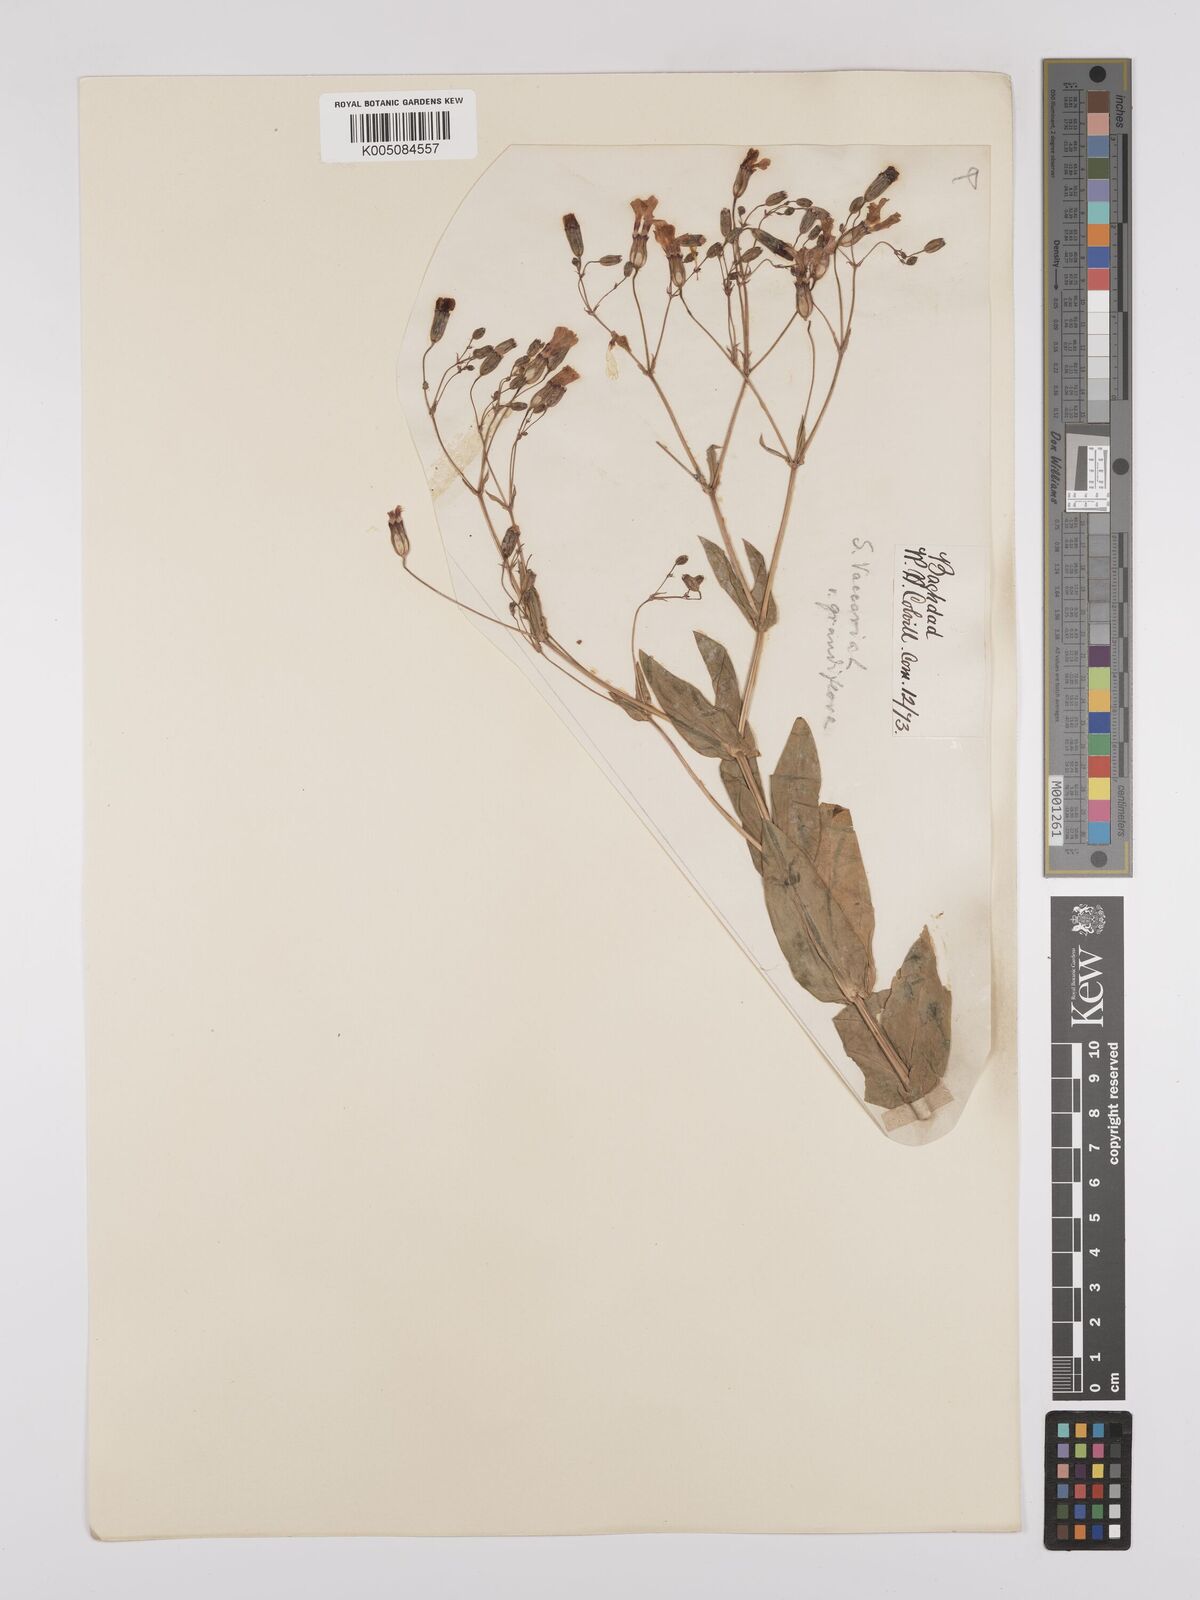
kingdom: Plantae
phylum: Tracheophyta
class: Magnoliopsida
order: Caryophyllales
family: Caryophyllaceae
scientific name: Caryophyllaceae
